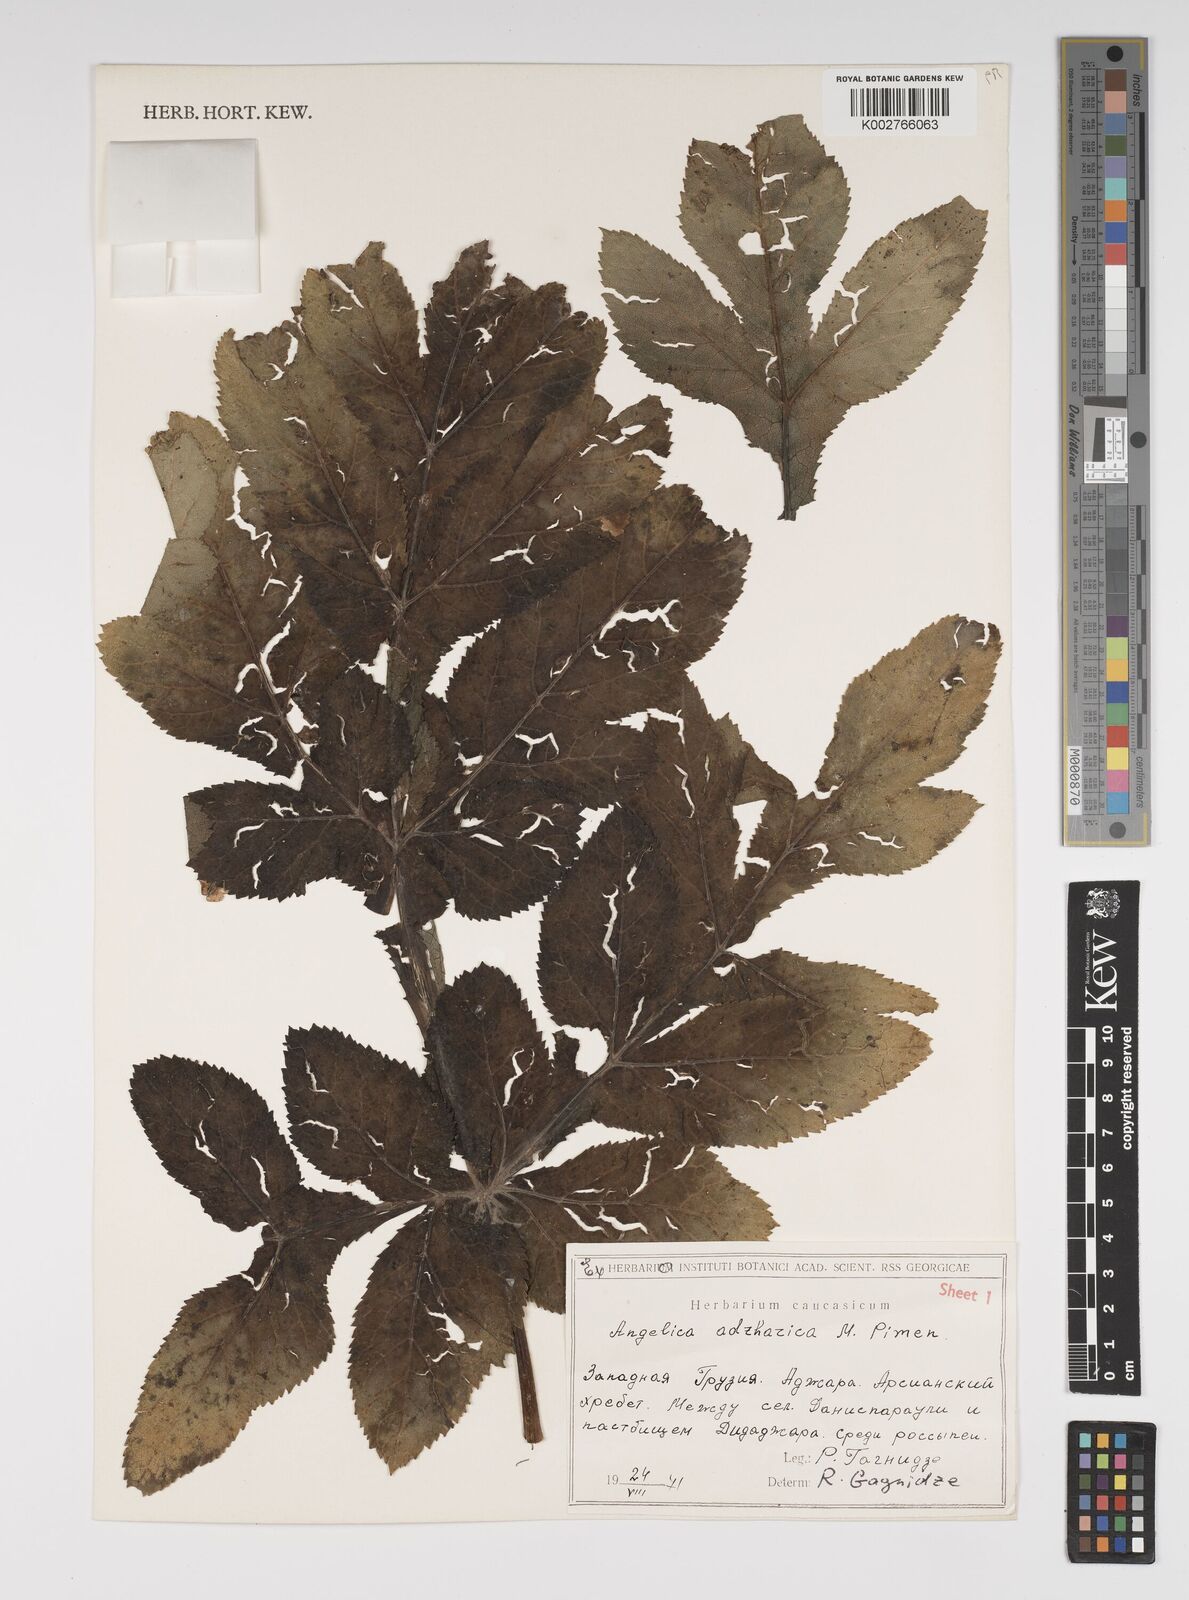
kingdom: Plantae
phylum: Tracheophyta
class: Magnoliopsida
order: Apiales
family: Apiaceae
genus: Angelica
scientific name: Angelica adzharica
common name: Adjarian angelica
